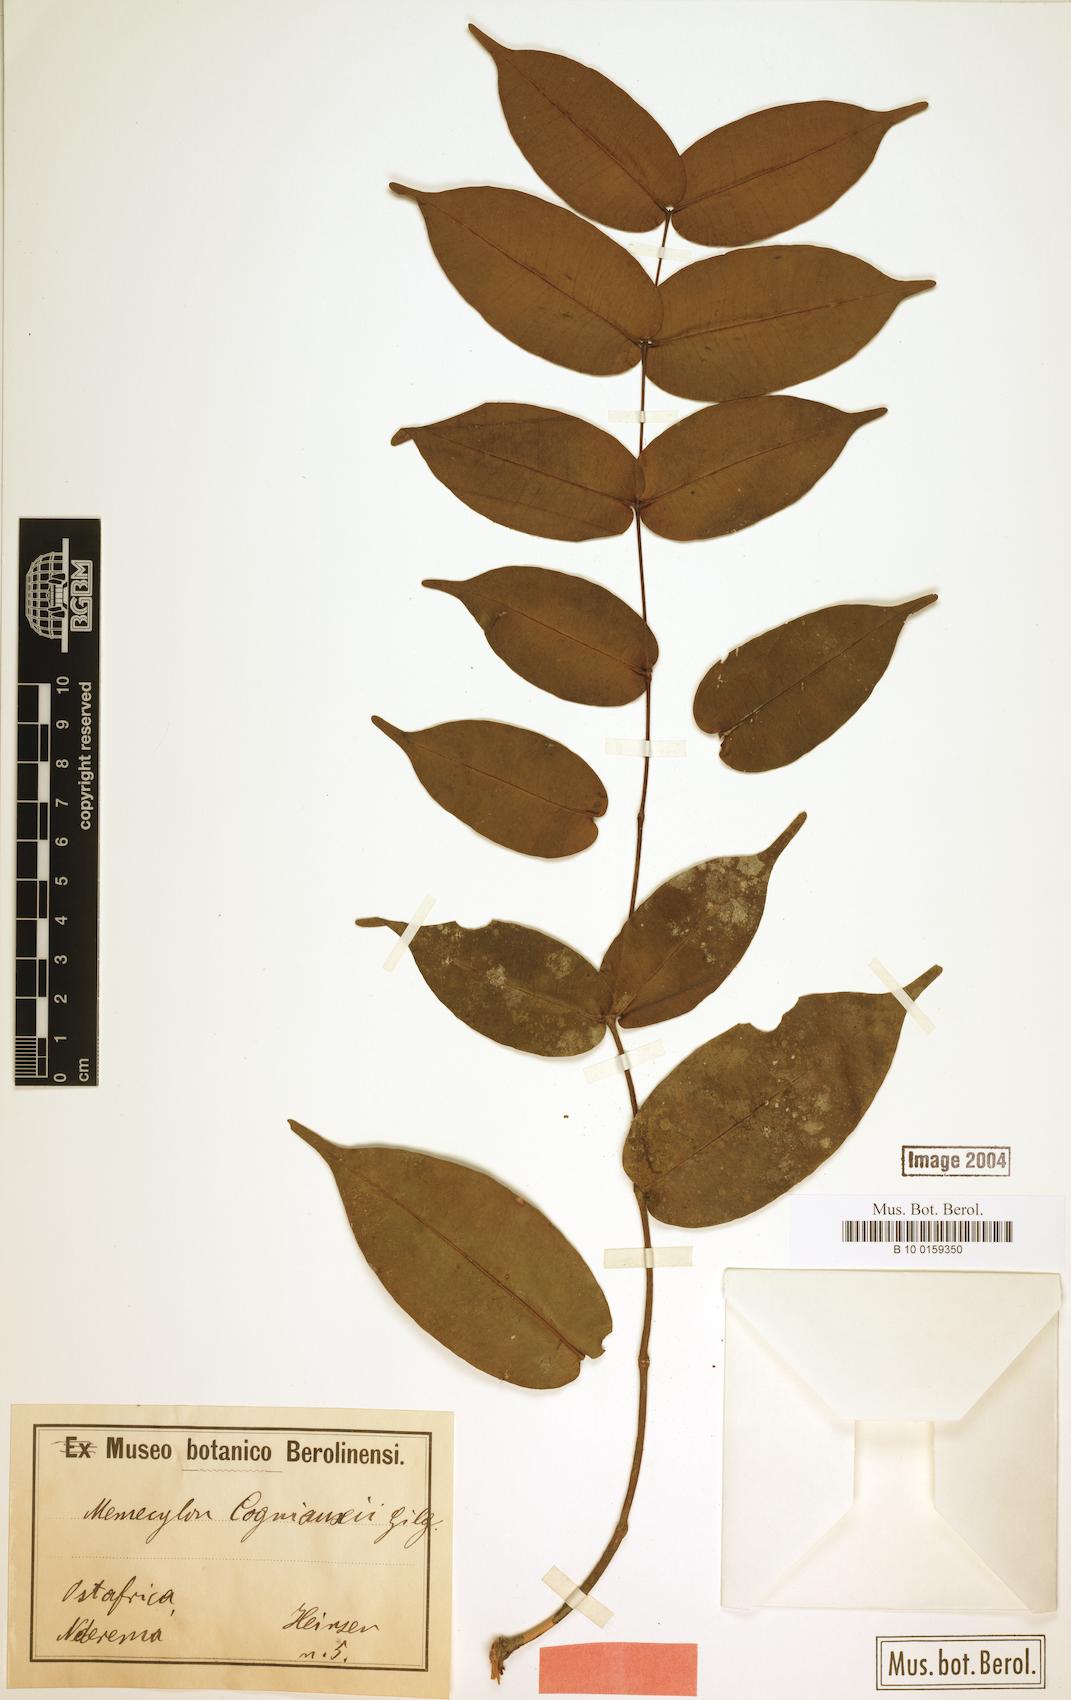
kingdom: Plantae
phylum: Tracheophyta
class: Magnoliopsida
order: Myrtales
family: Melastomataceae
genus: Memecylon
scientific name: Memecylon cogniauxii
